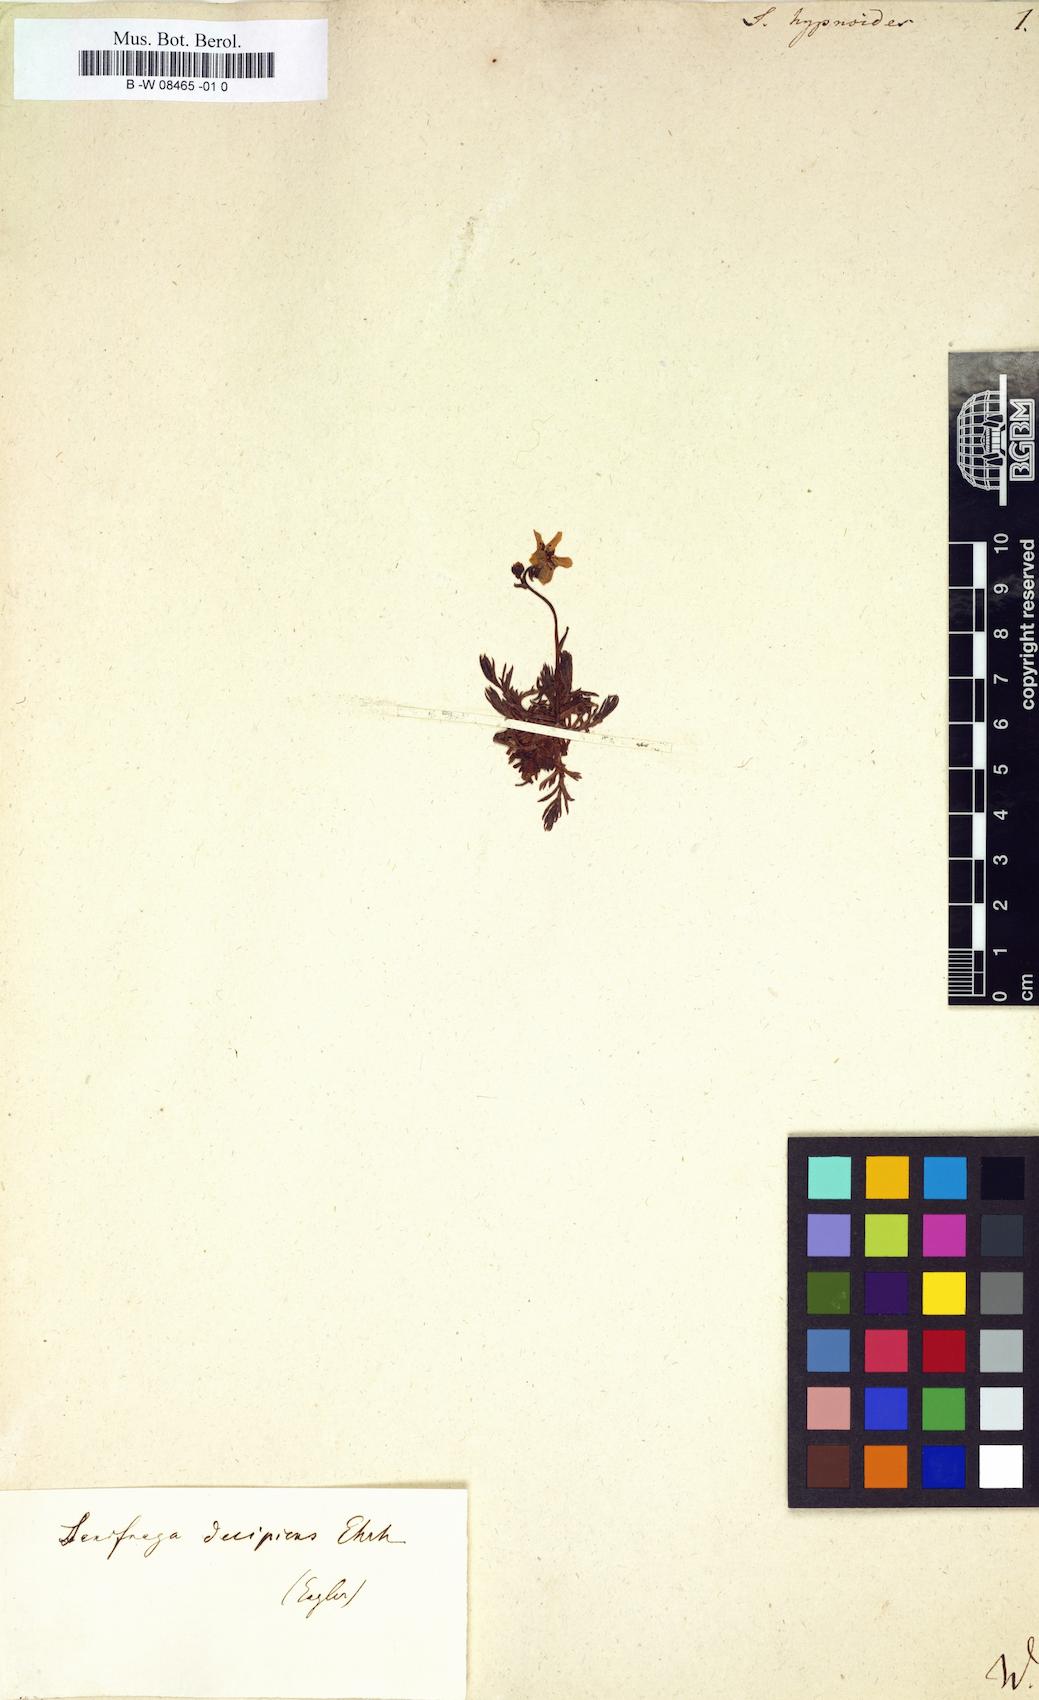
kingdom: Plantae
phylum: Tracheophyta
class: Magnoliopsida
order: Saxifragales
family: Saxifragaceae
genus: Saxifraga
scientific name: Saxifraga hypnoides
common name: Mossy saxifrage
